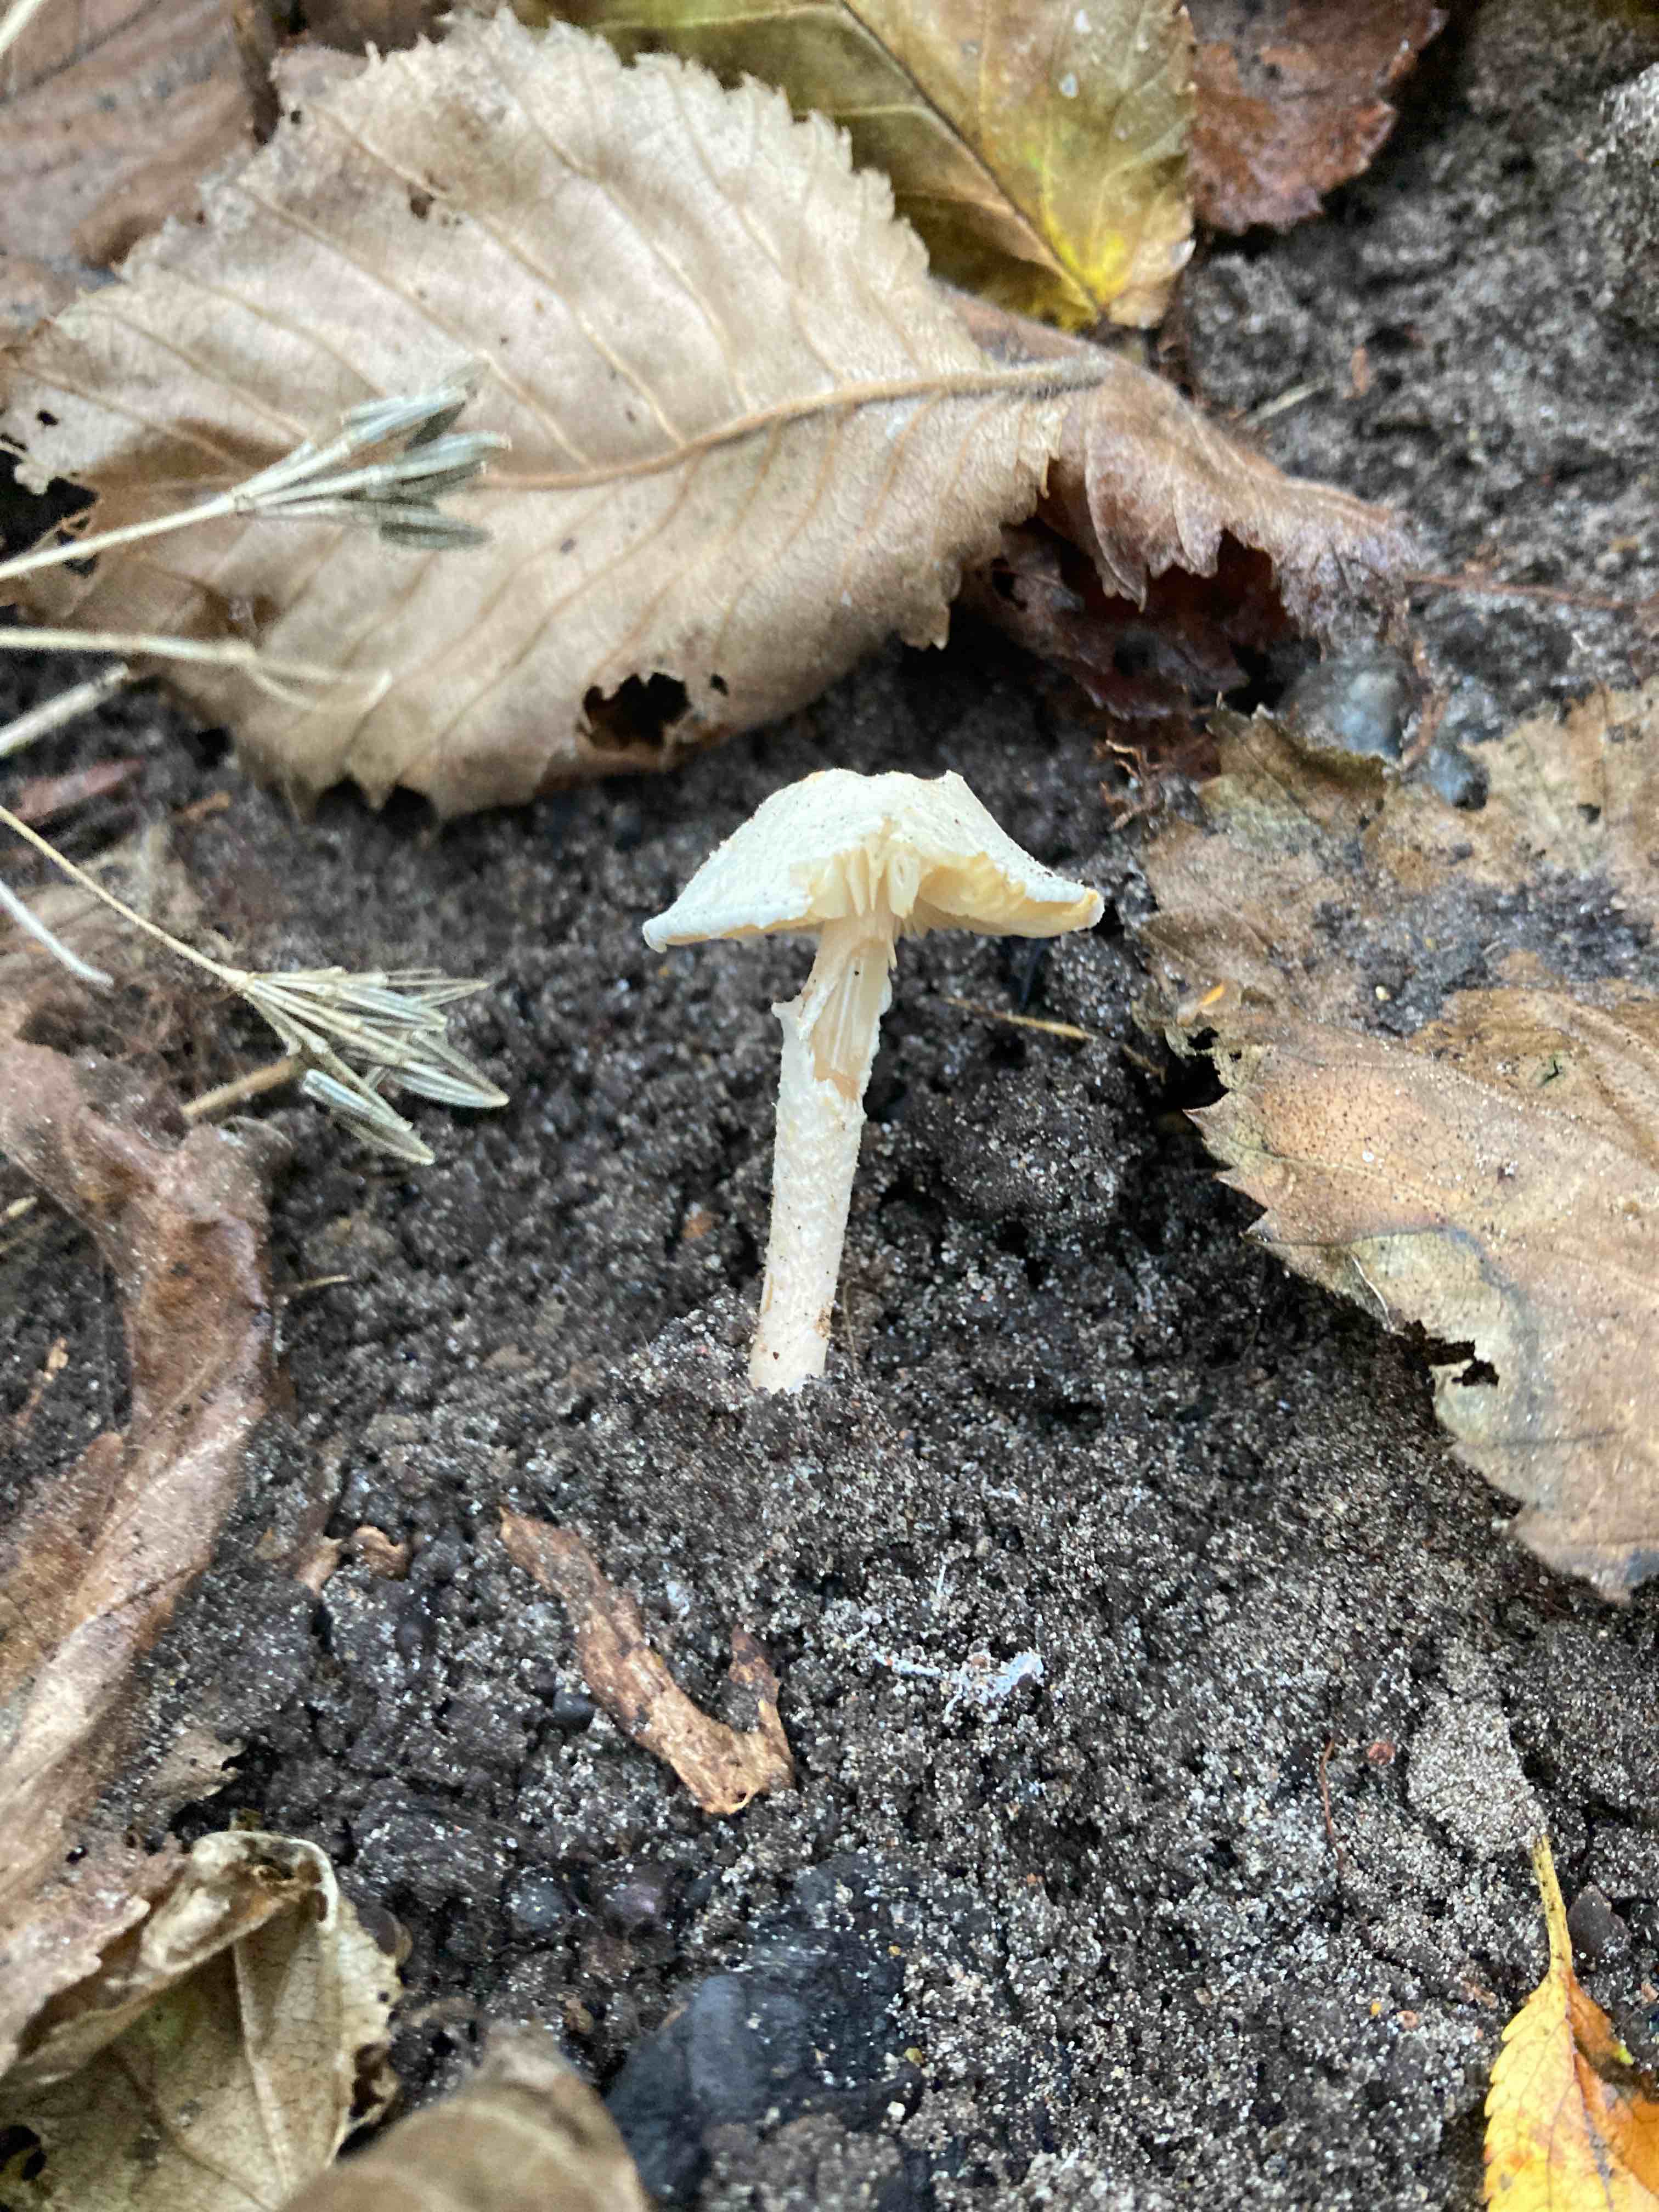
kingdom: Fungi
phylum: Basidiomycota
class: Agaricomycetes
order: Agaricales
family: Agaricaceae
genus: Lepiota
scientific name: Lepiota subalba
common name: hvidlig parasolhat
